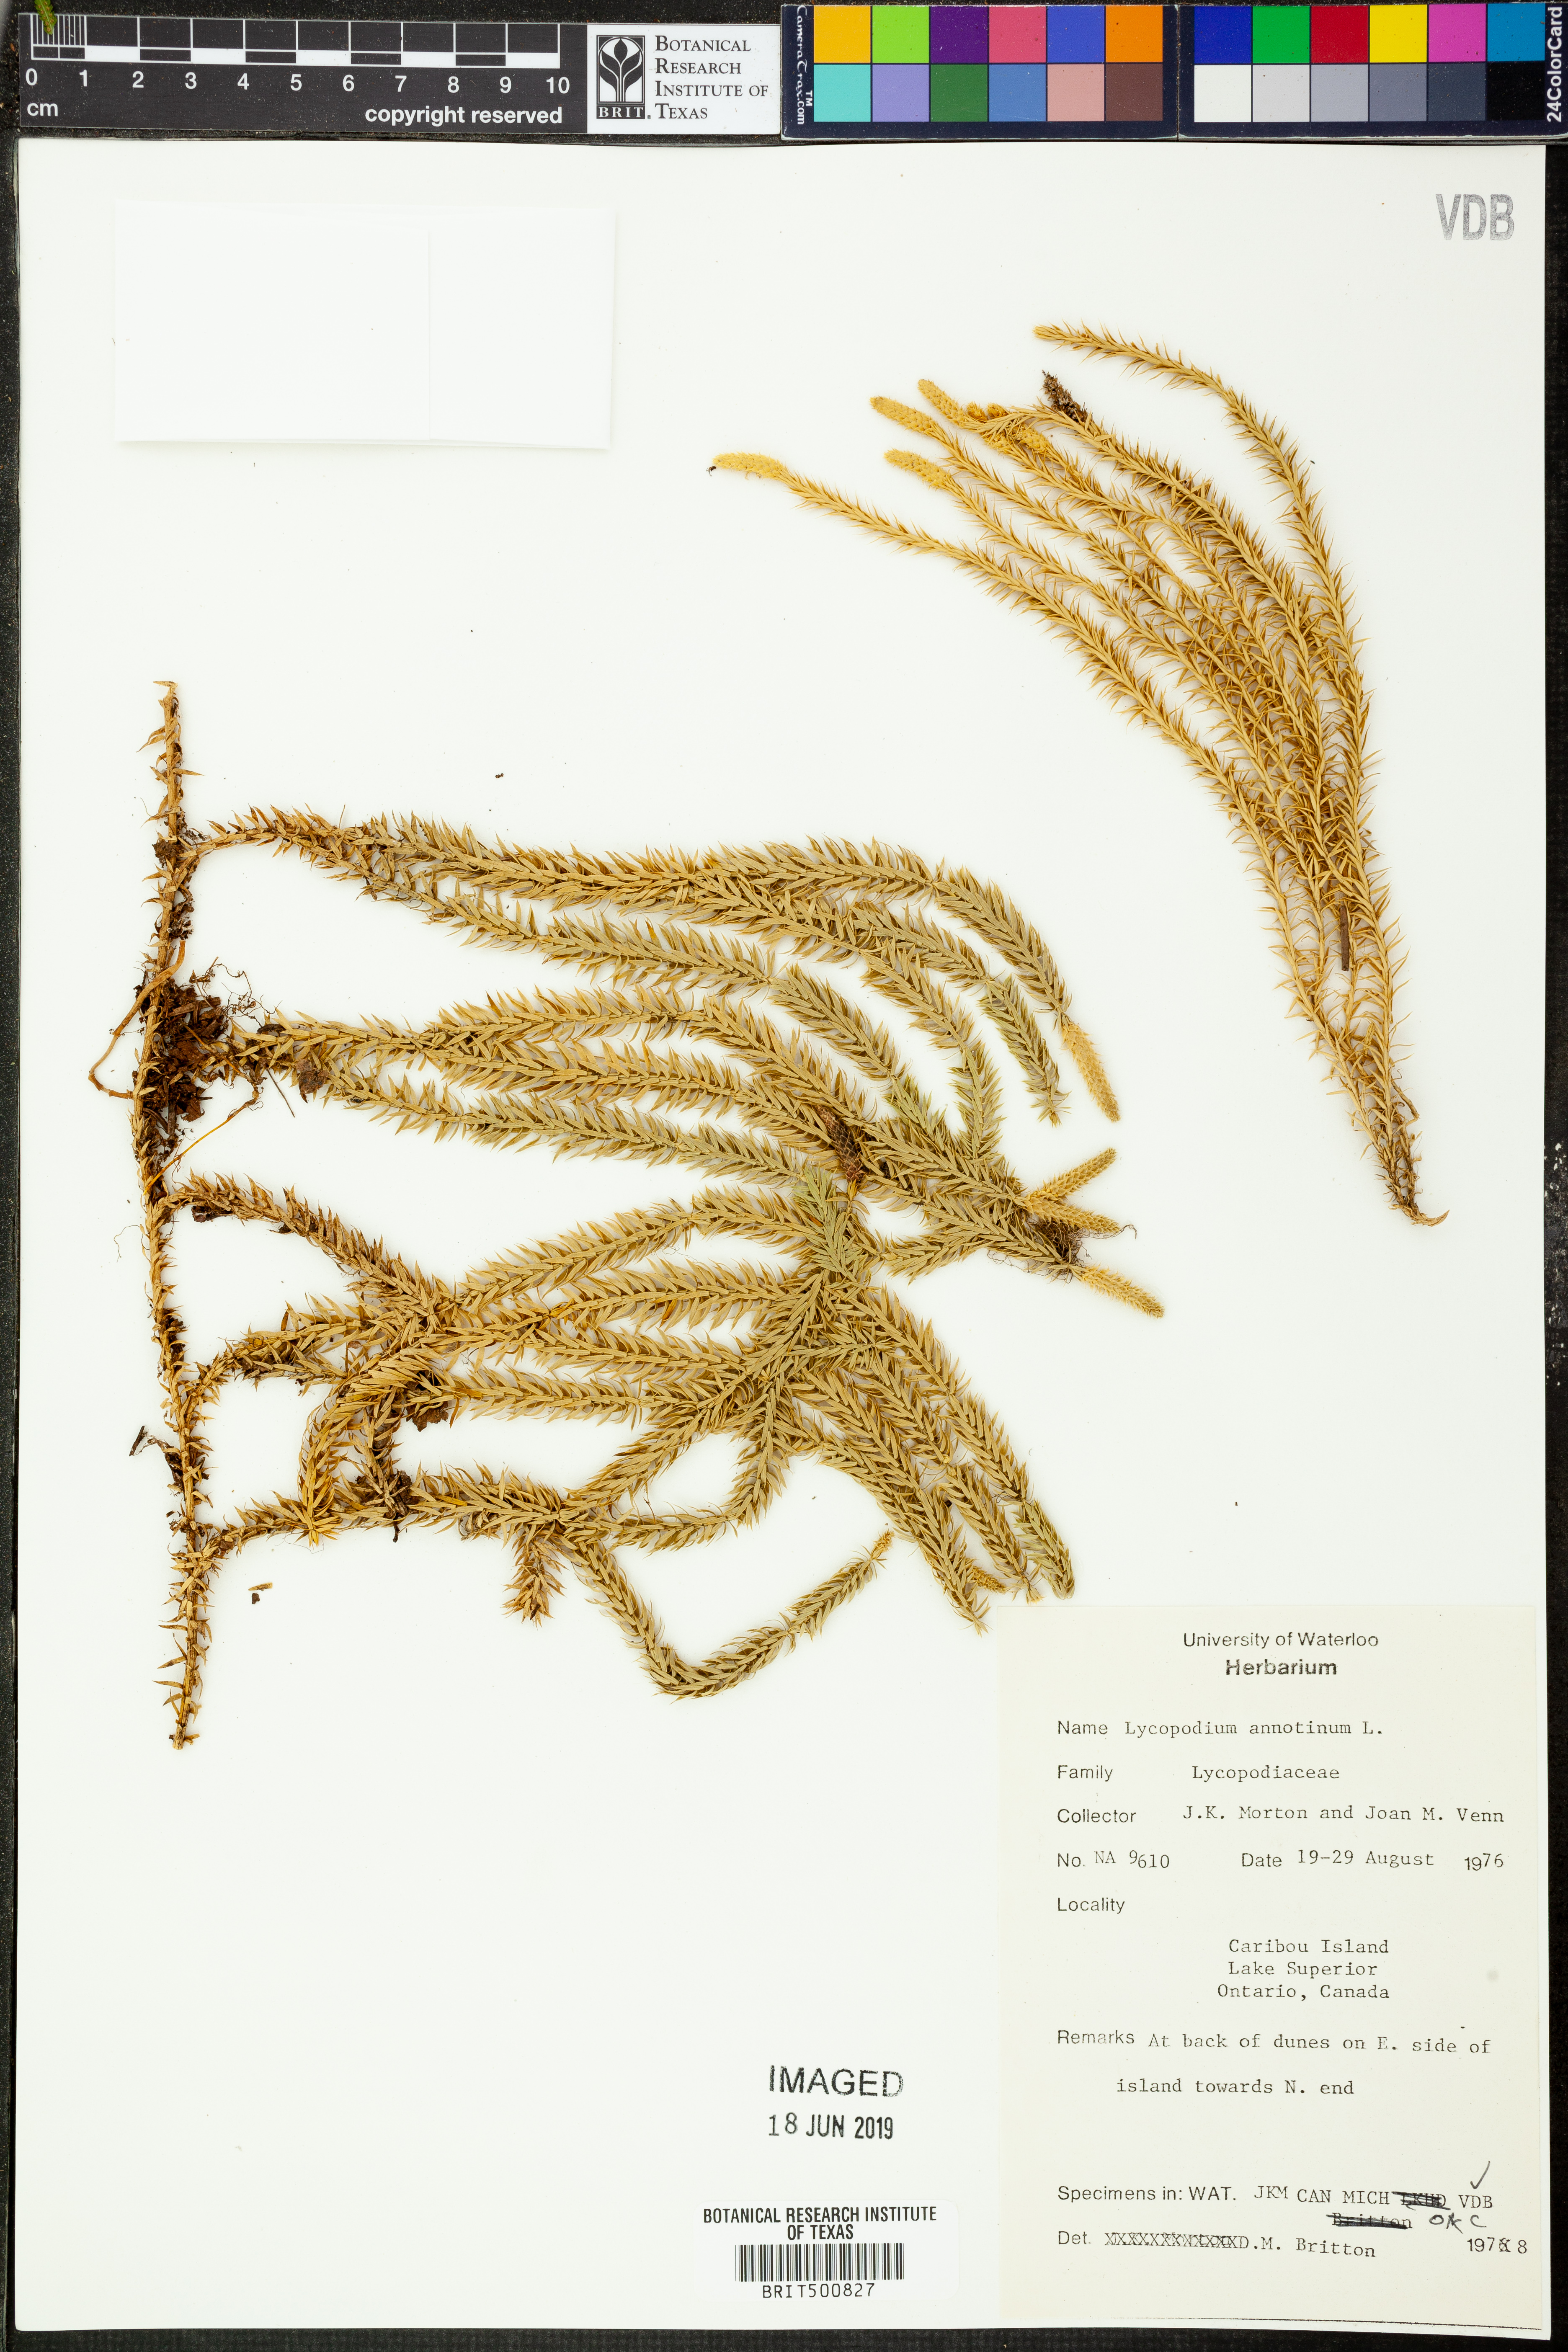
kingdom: Plantae
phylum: Tracheophyta
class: Lycopodiopsida
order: Lycopodiales
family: Lycopodiaceae
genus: Spinulum
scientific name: Spinulum annotinum
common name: Interrupted club-moss
